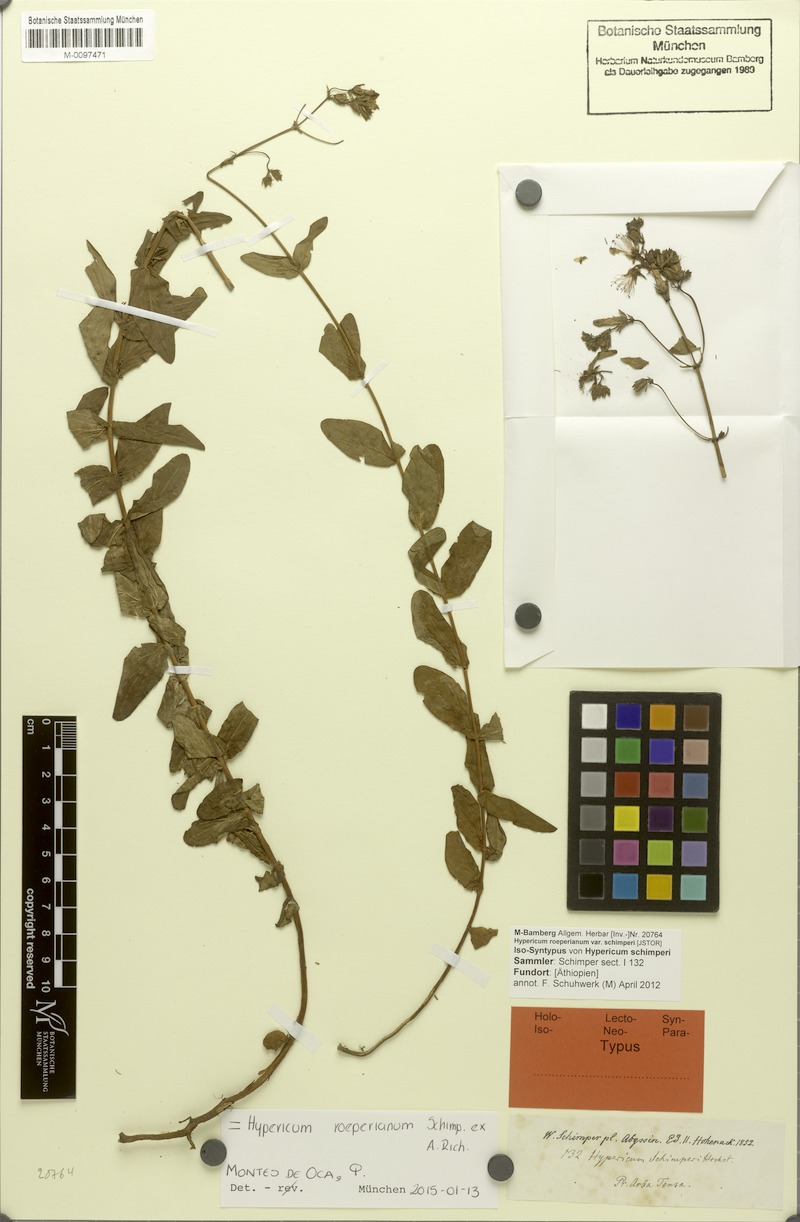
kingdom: Plantae
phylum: Tracheophyta
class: Magnoliopsida
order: Malpighiales
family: Hypericaceae
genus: Hypericum
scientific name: Hypericum roeperianum
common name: Large-leaved curry-bush
